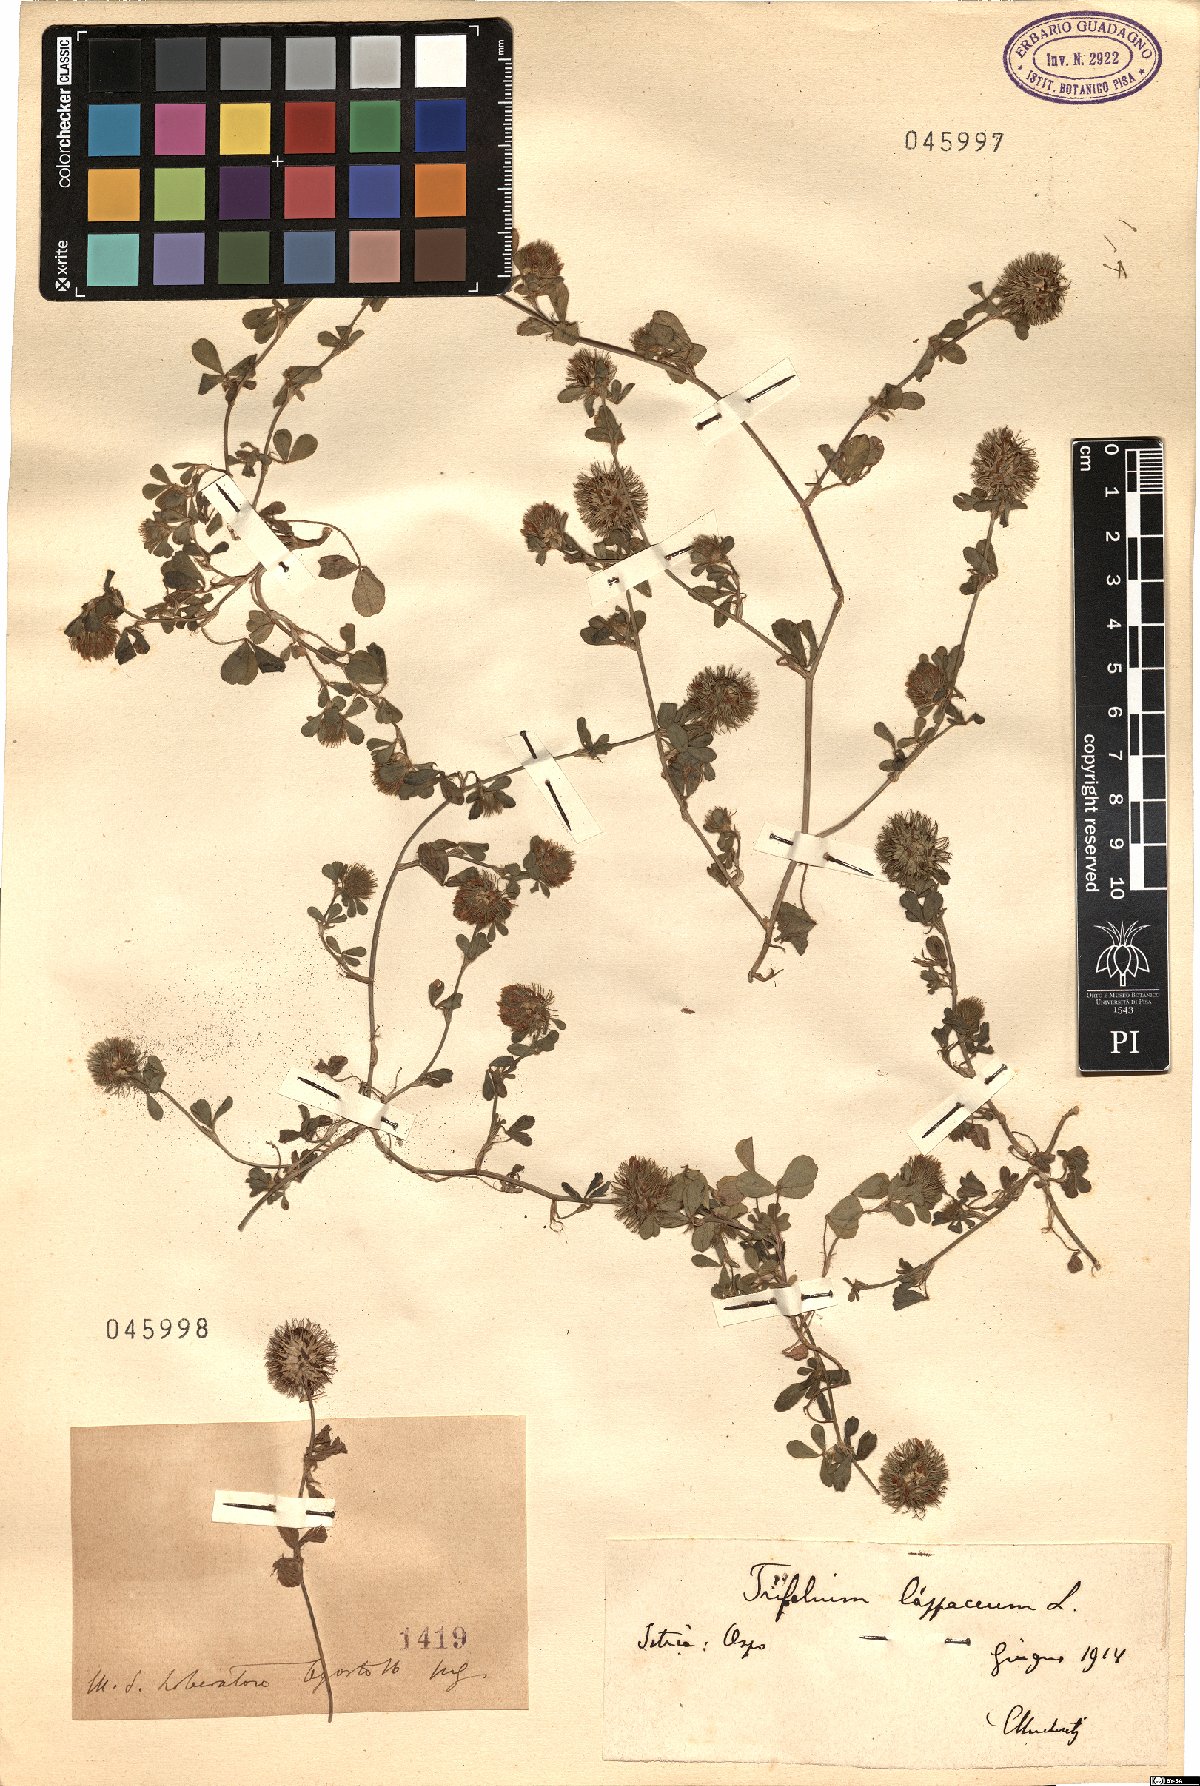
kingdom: Plantae
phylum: Tracheophyta
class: Magnoliopsida
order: Fabales
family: Fabaceae
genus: Trifolium
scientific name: Trifolium
